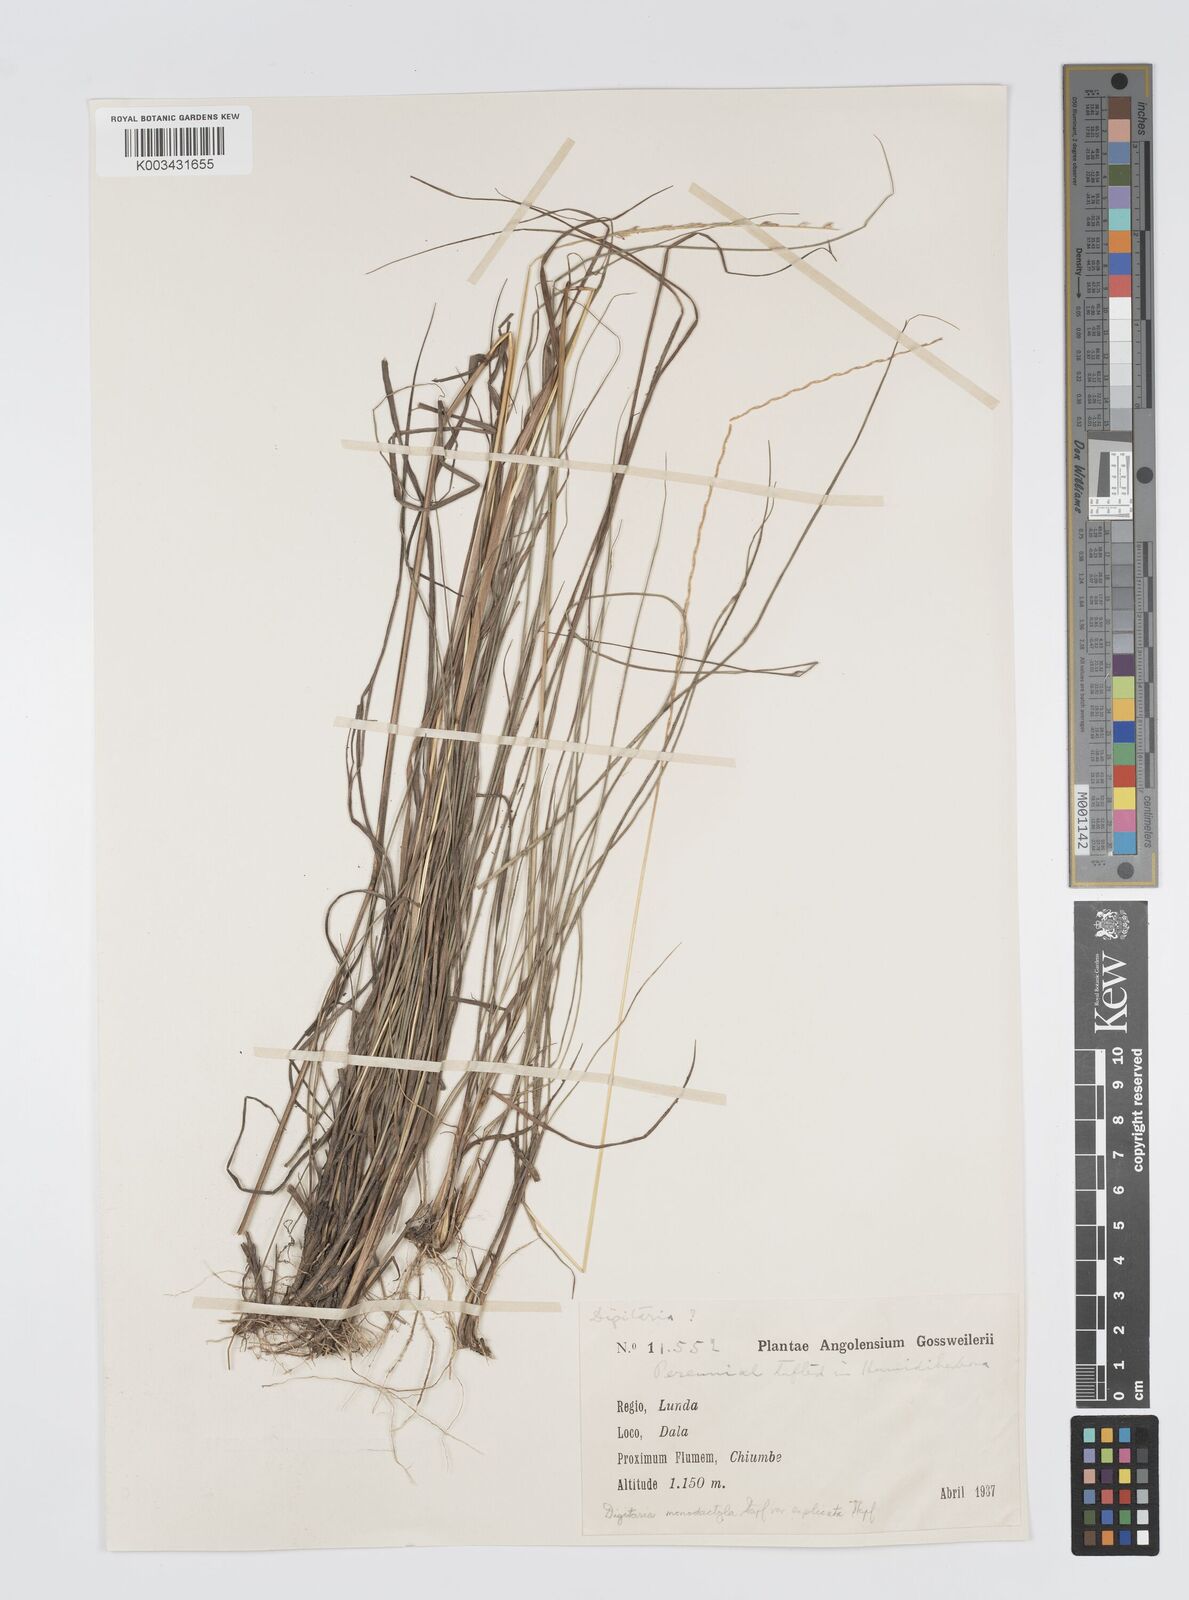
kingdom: Plantae
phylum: Tracheophyta
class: Liliopsida
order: Poales
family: Poaceae
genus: Digitaria
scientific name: Digitaria monodactyla
